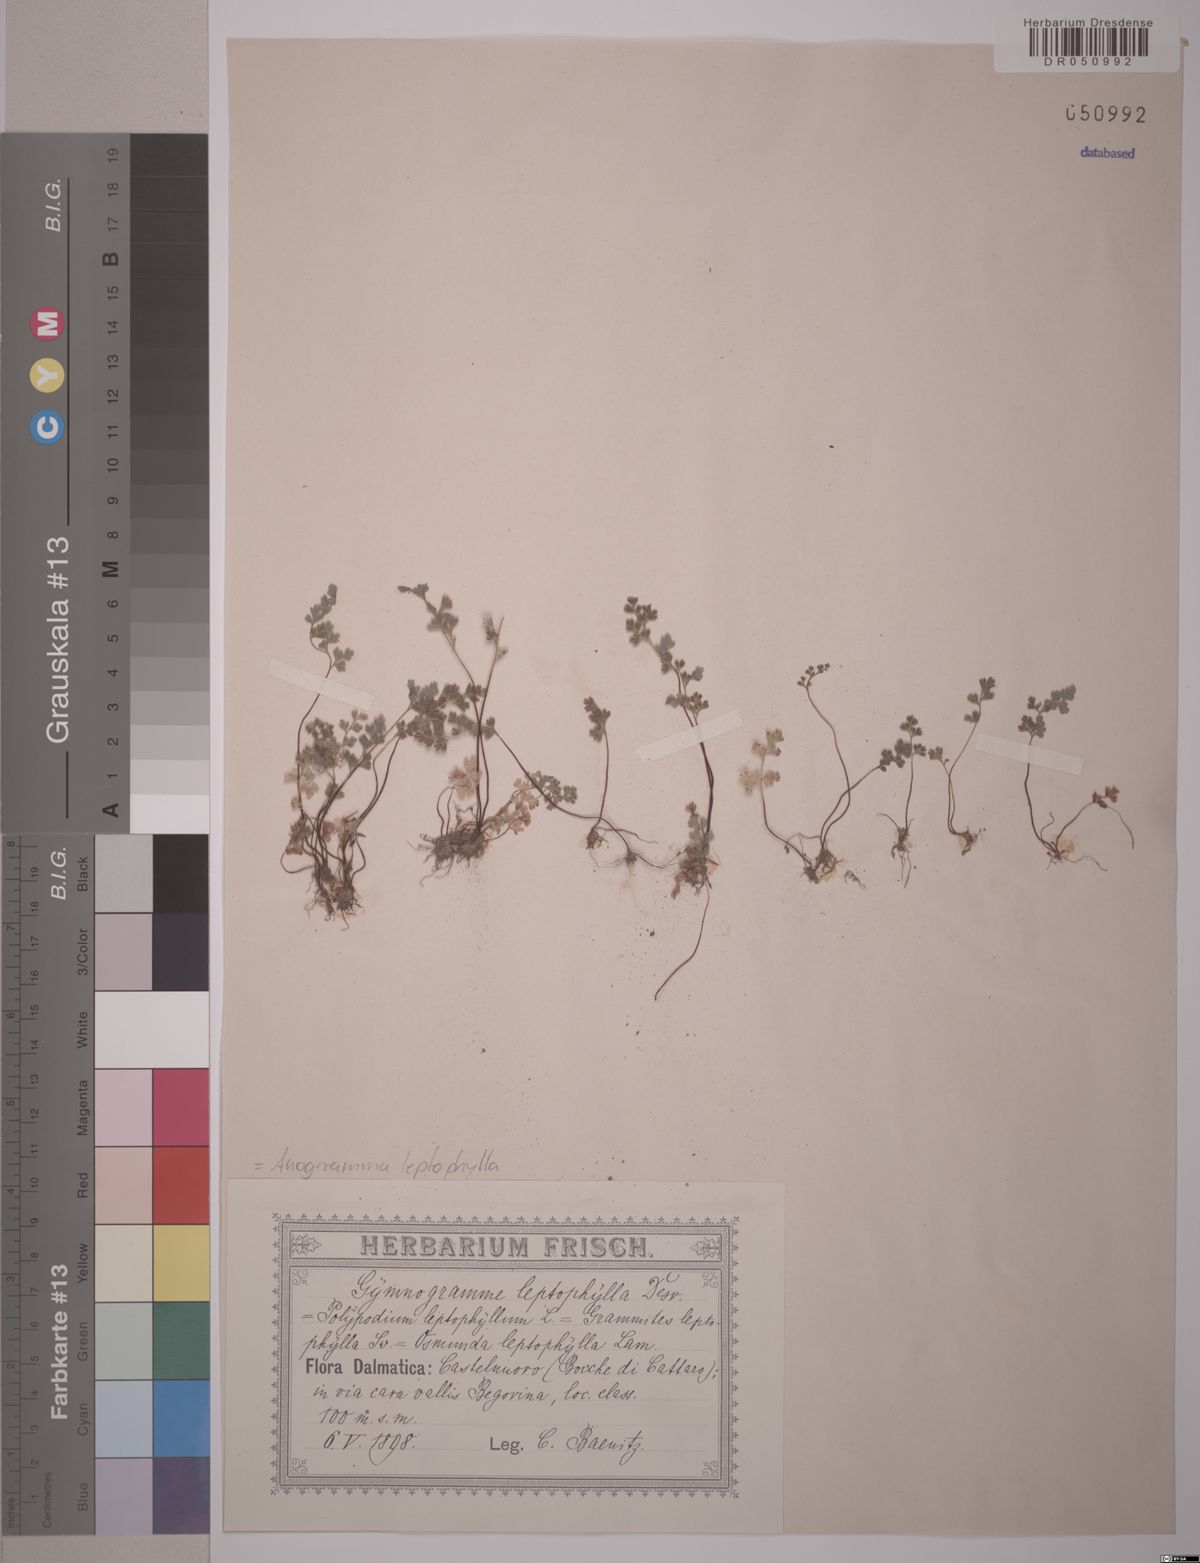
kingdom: Plantae
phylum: Tracheophyta
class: Polypodiopsida
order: Polypodiales
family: Pteridaceae
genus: Anogramma
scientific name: Anogramma leptophylla
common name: Jersey fern
